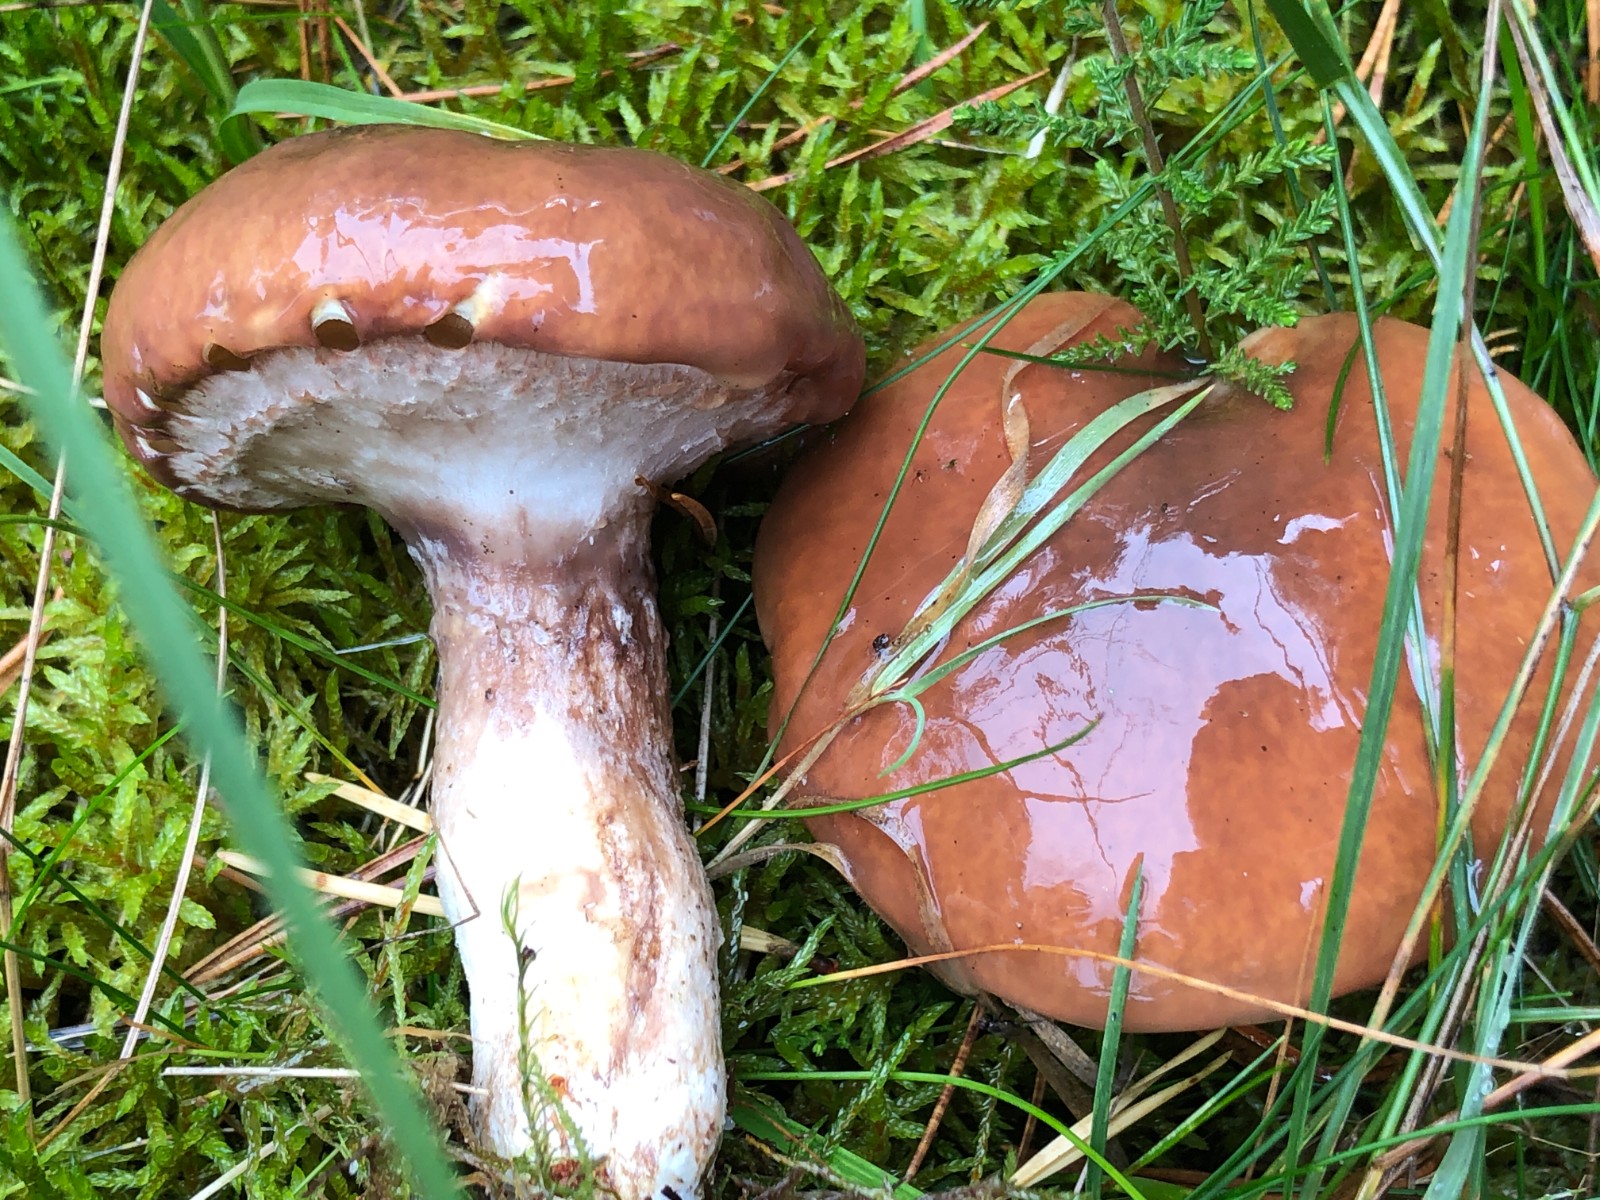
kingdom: Fungi
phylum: Basidiomycota
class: Agaricomycetes
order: Boletales
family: Suillaceae
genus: Suillus
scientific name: Suillus luteus
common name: brungul slimrørhat
